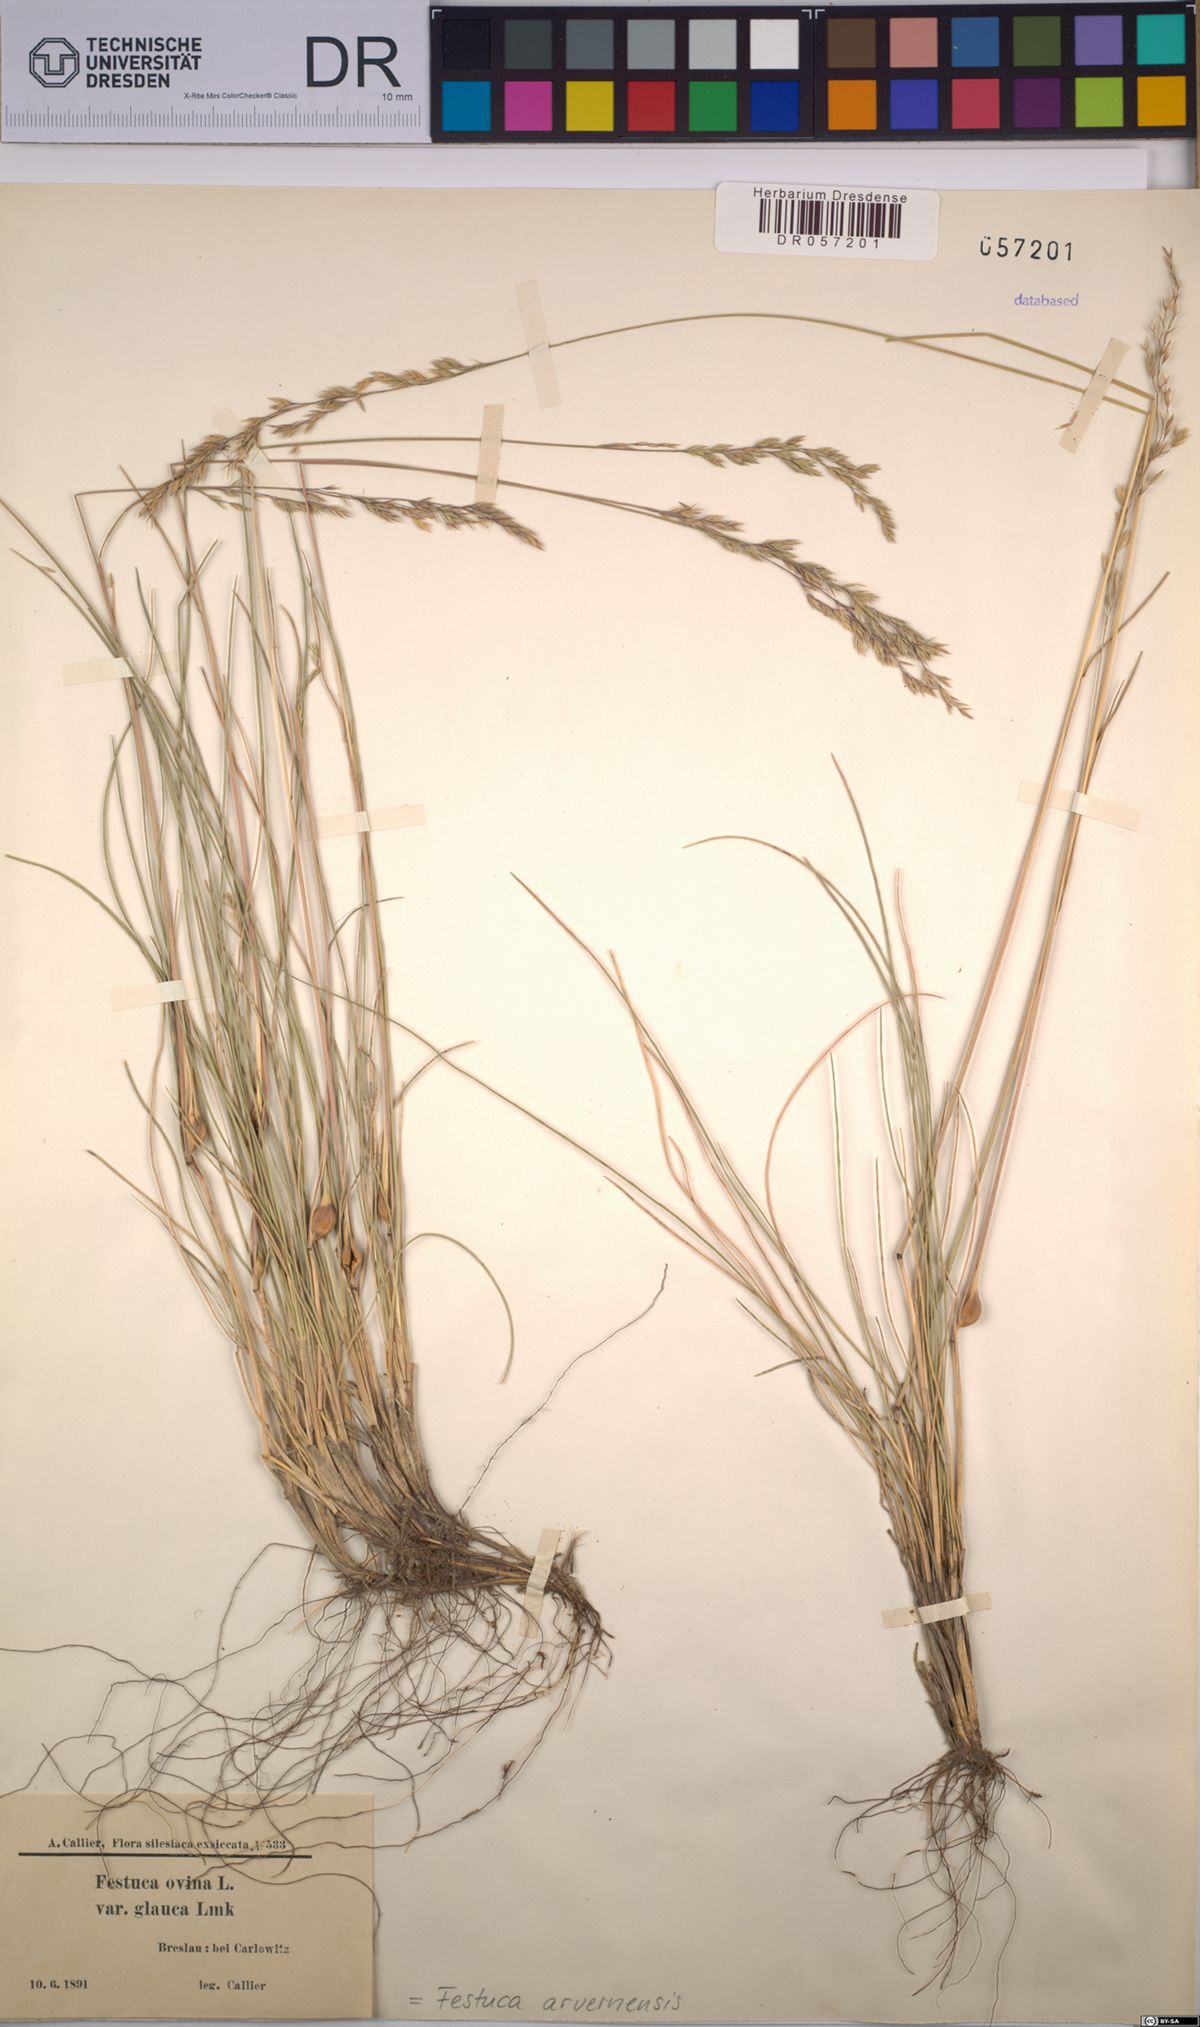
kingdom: Plantae
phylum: Tracheophyta
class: Liliopsida
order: Poales
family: Poaceae
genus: Festuca
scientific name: Festuca arvernensis
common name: Field fescue
